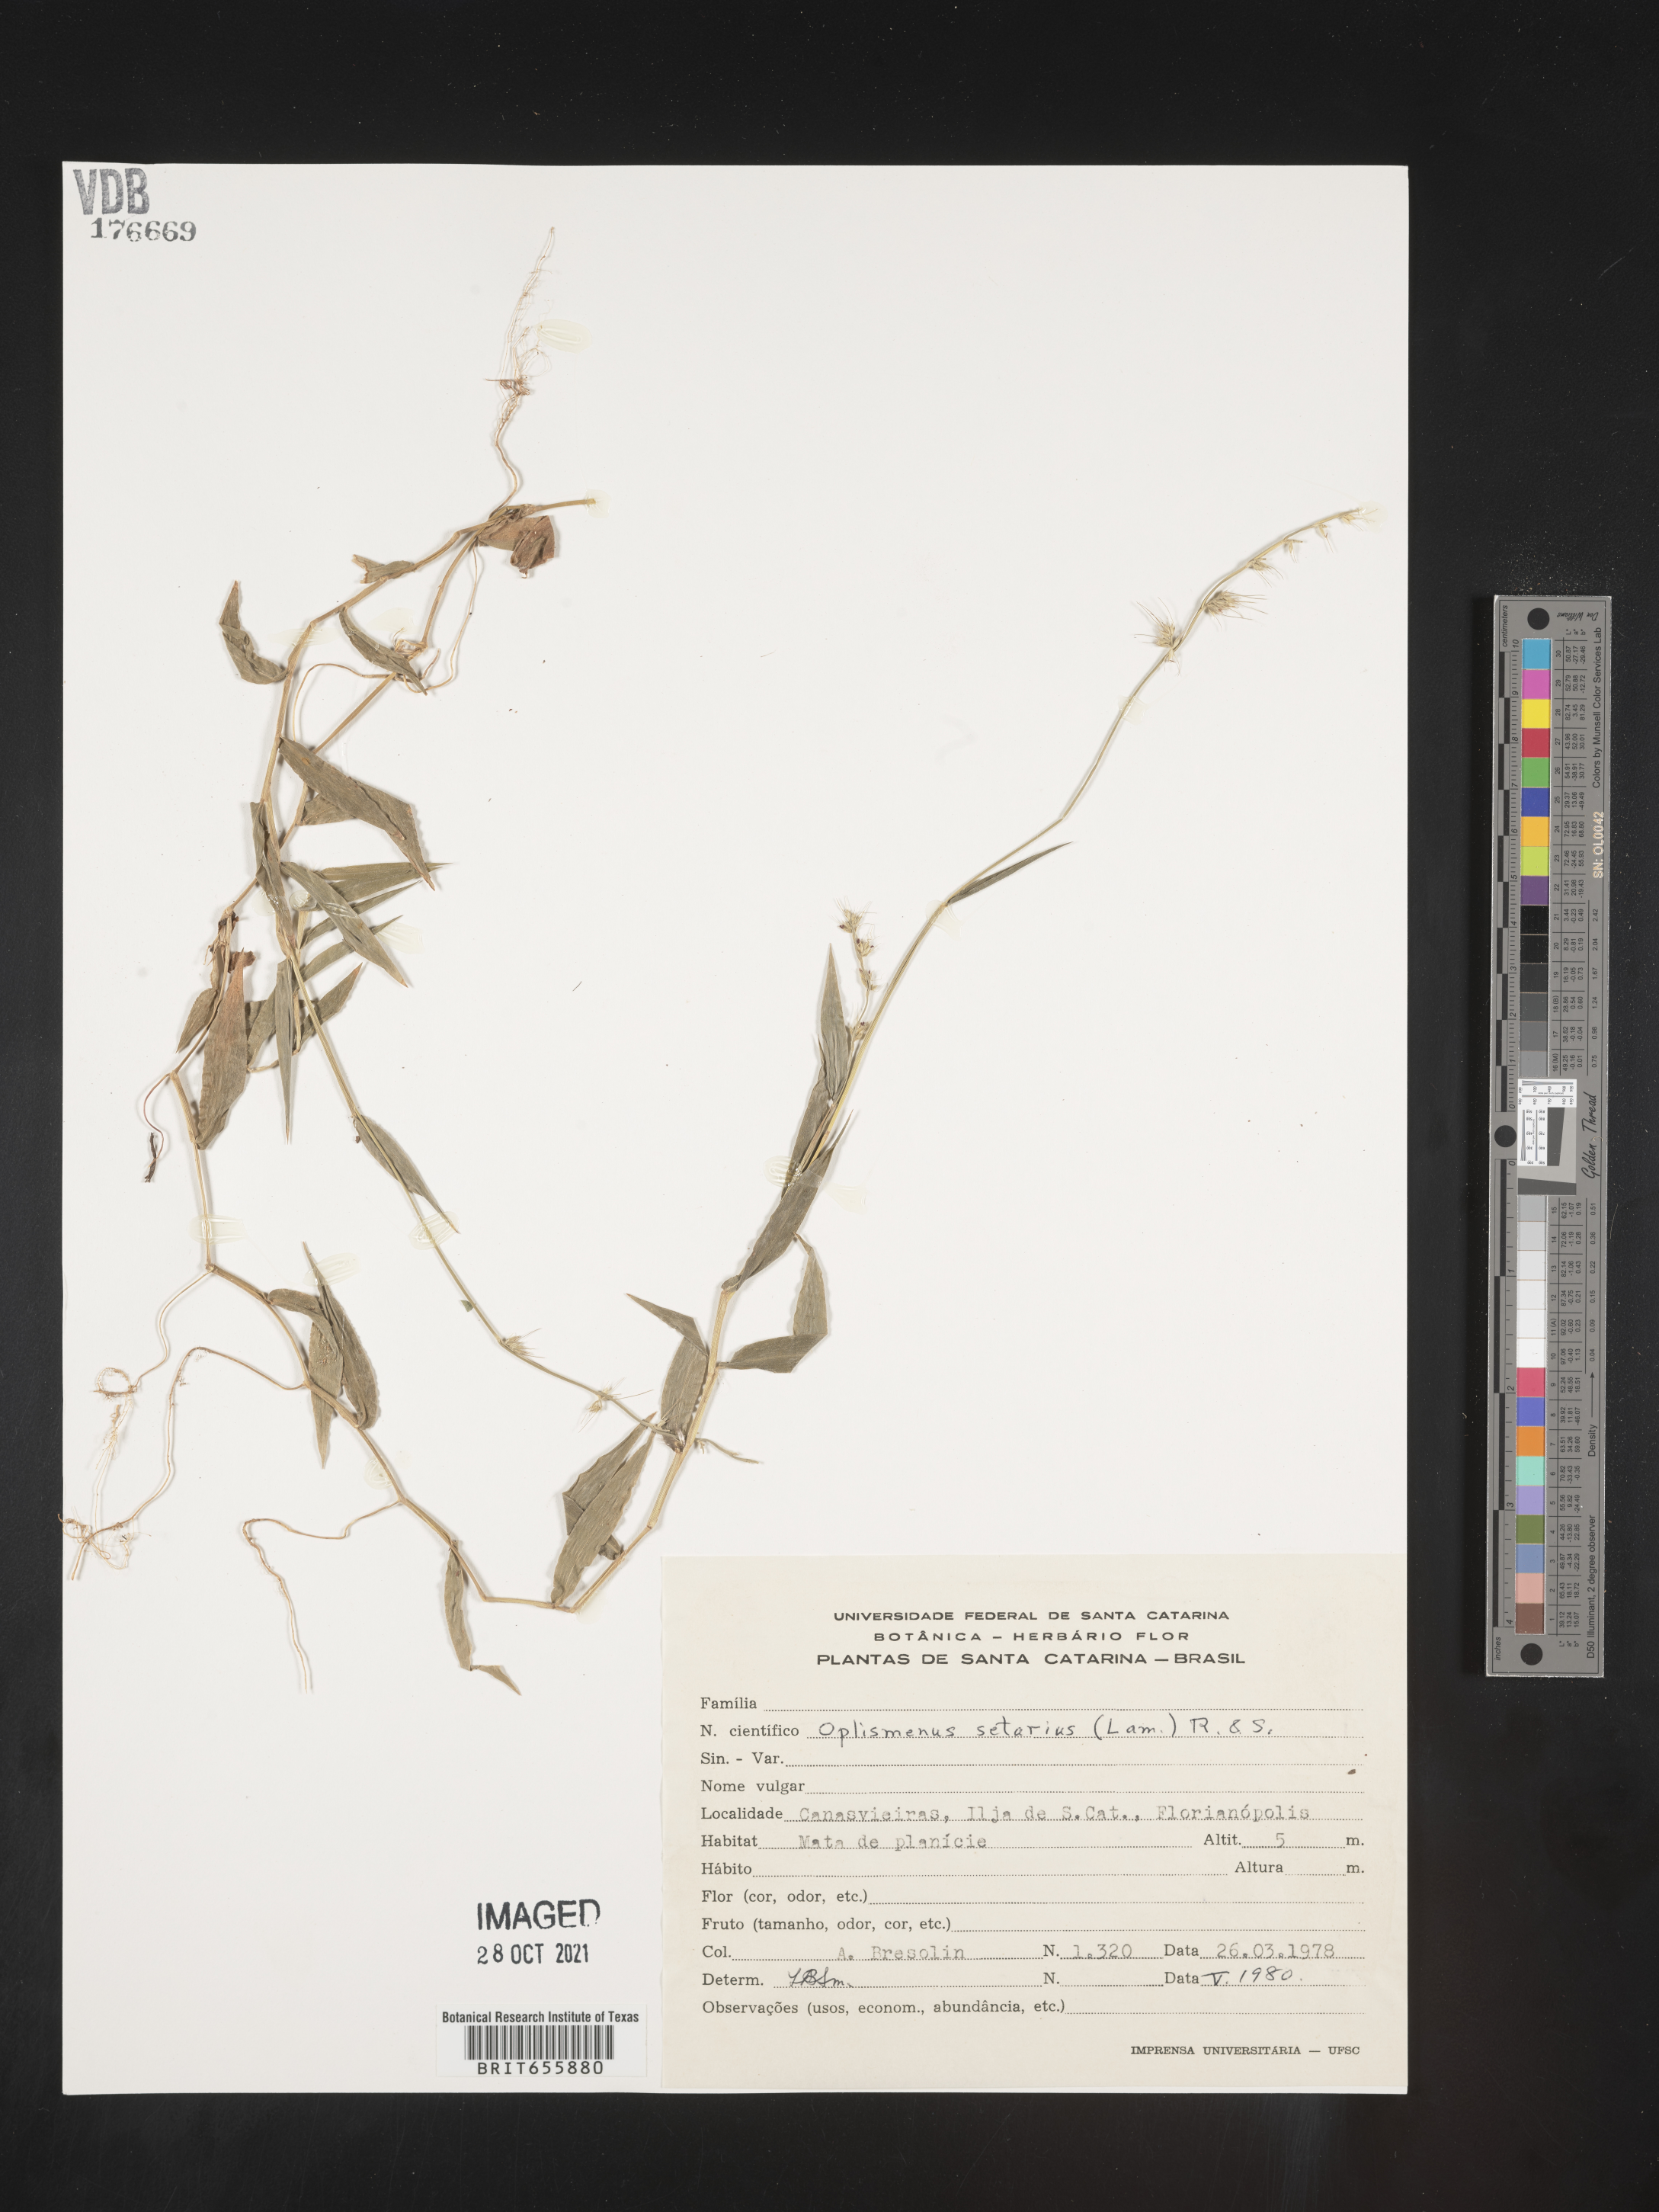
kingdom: Plantae
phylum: Tracheophyta
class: Liliopsida
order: Poales
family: Poaceae
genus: Oplismenus
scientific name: Oplismenus
